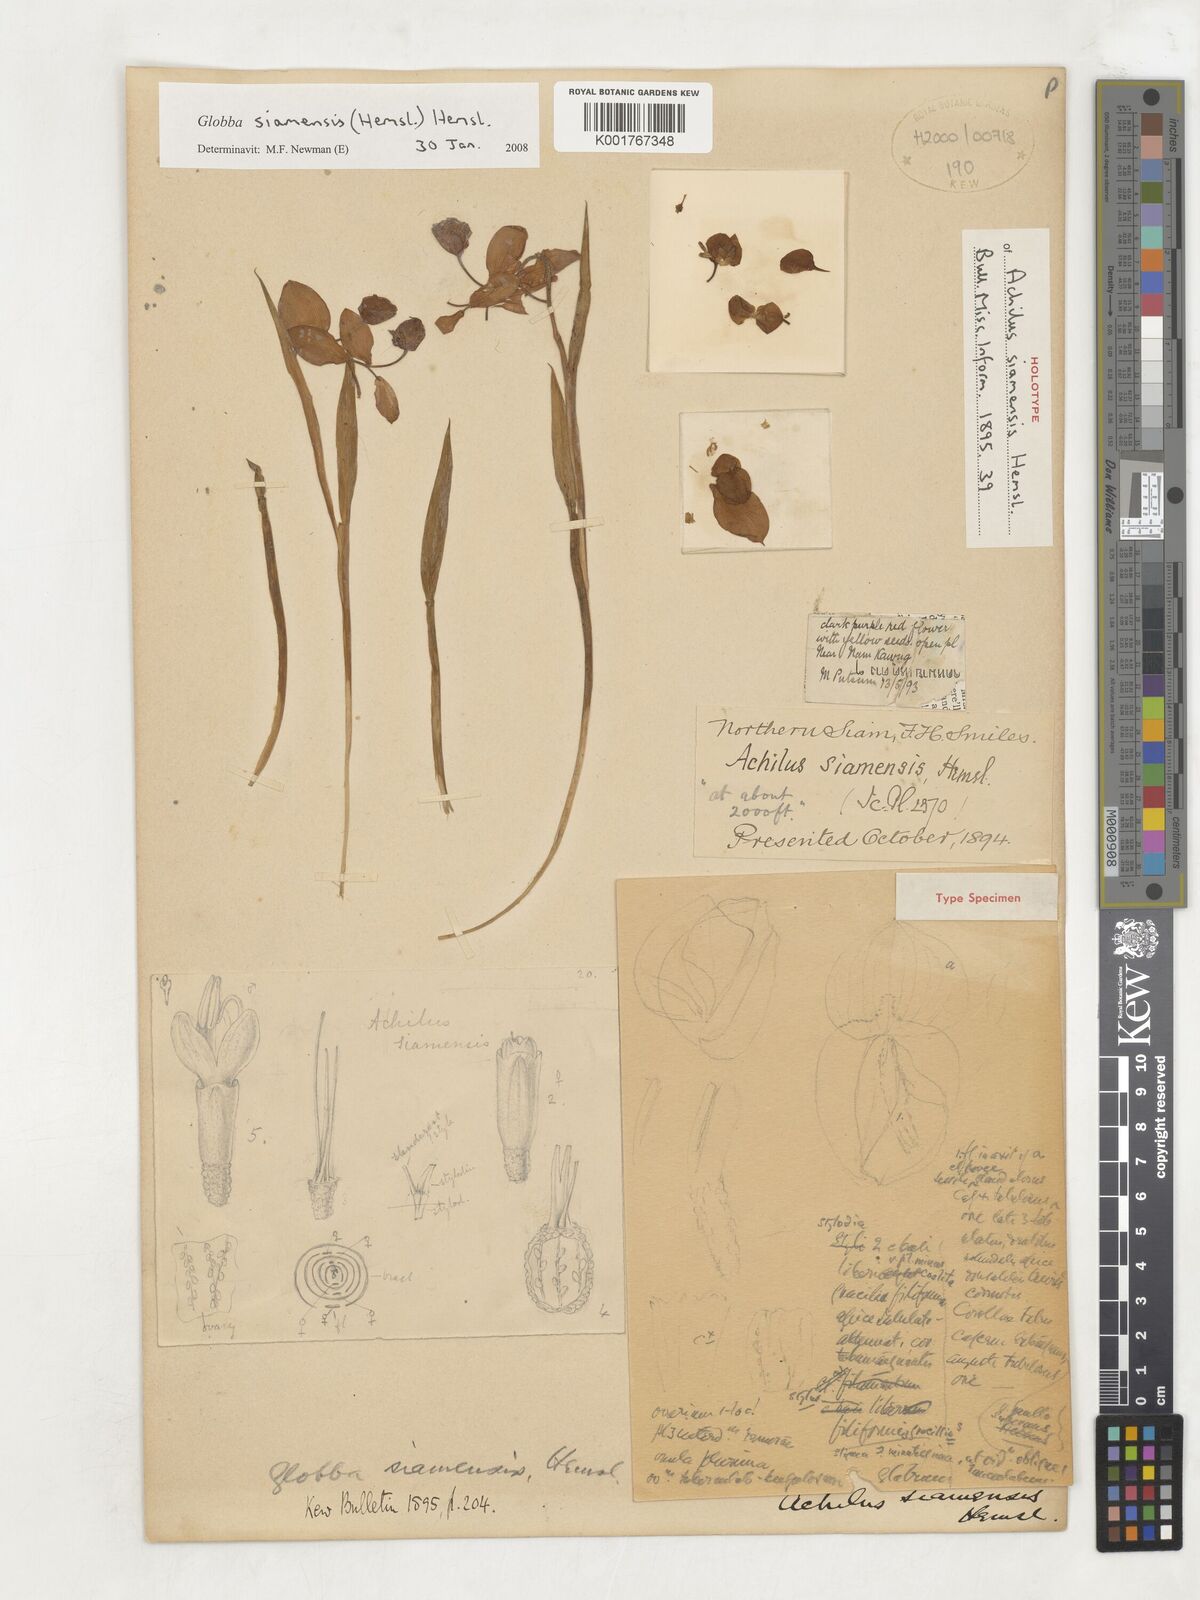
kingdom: Plantae
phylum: Tracheophyta
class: Liliopsida
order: Zingiberales
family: Zingiberaceae
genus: Globba
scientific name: Globba siamensis
